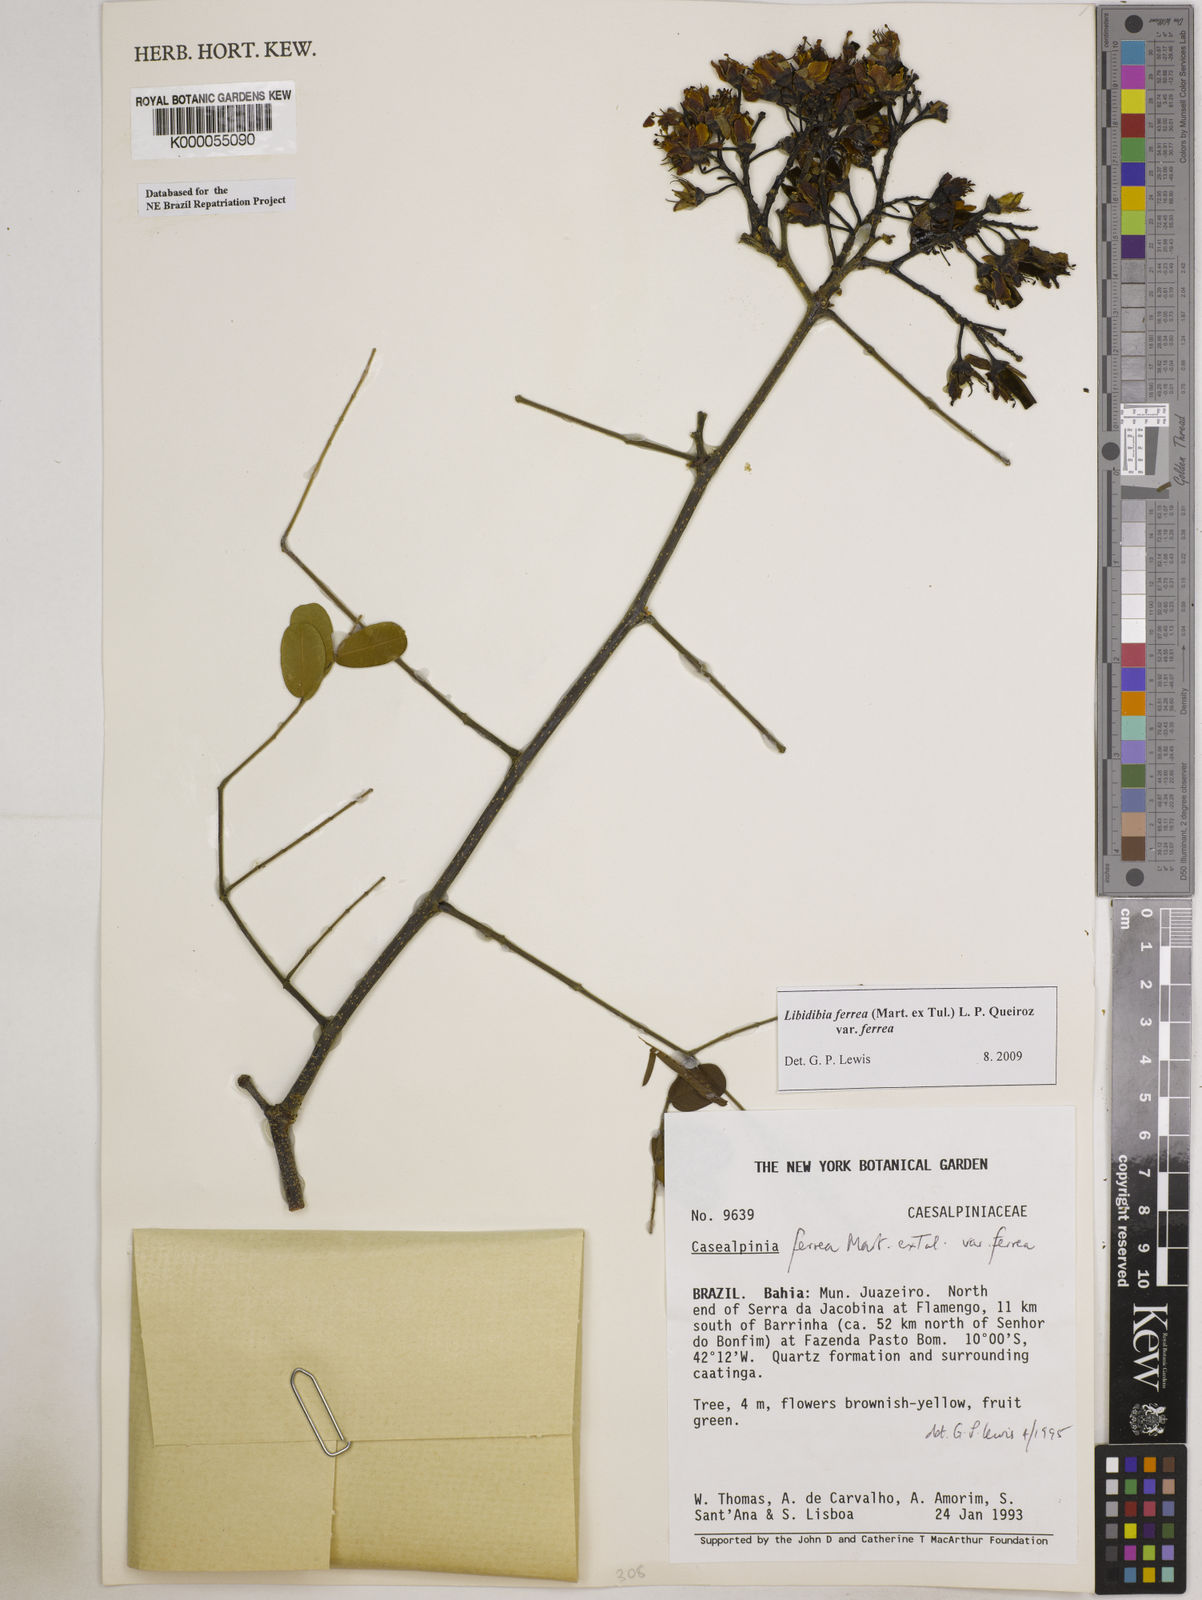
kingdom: Plantae
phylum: Tracheophyta
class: Magnoliopsida
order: Fabales
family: Fabaceae
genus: Libidibia
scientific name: Libidibia ferrea
